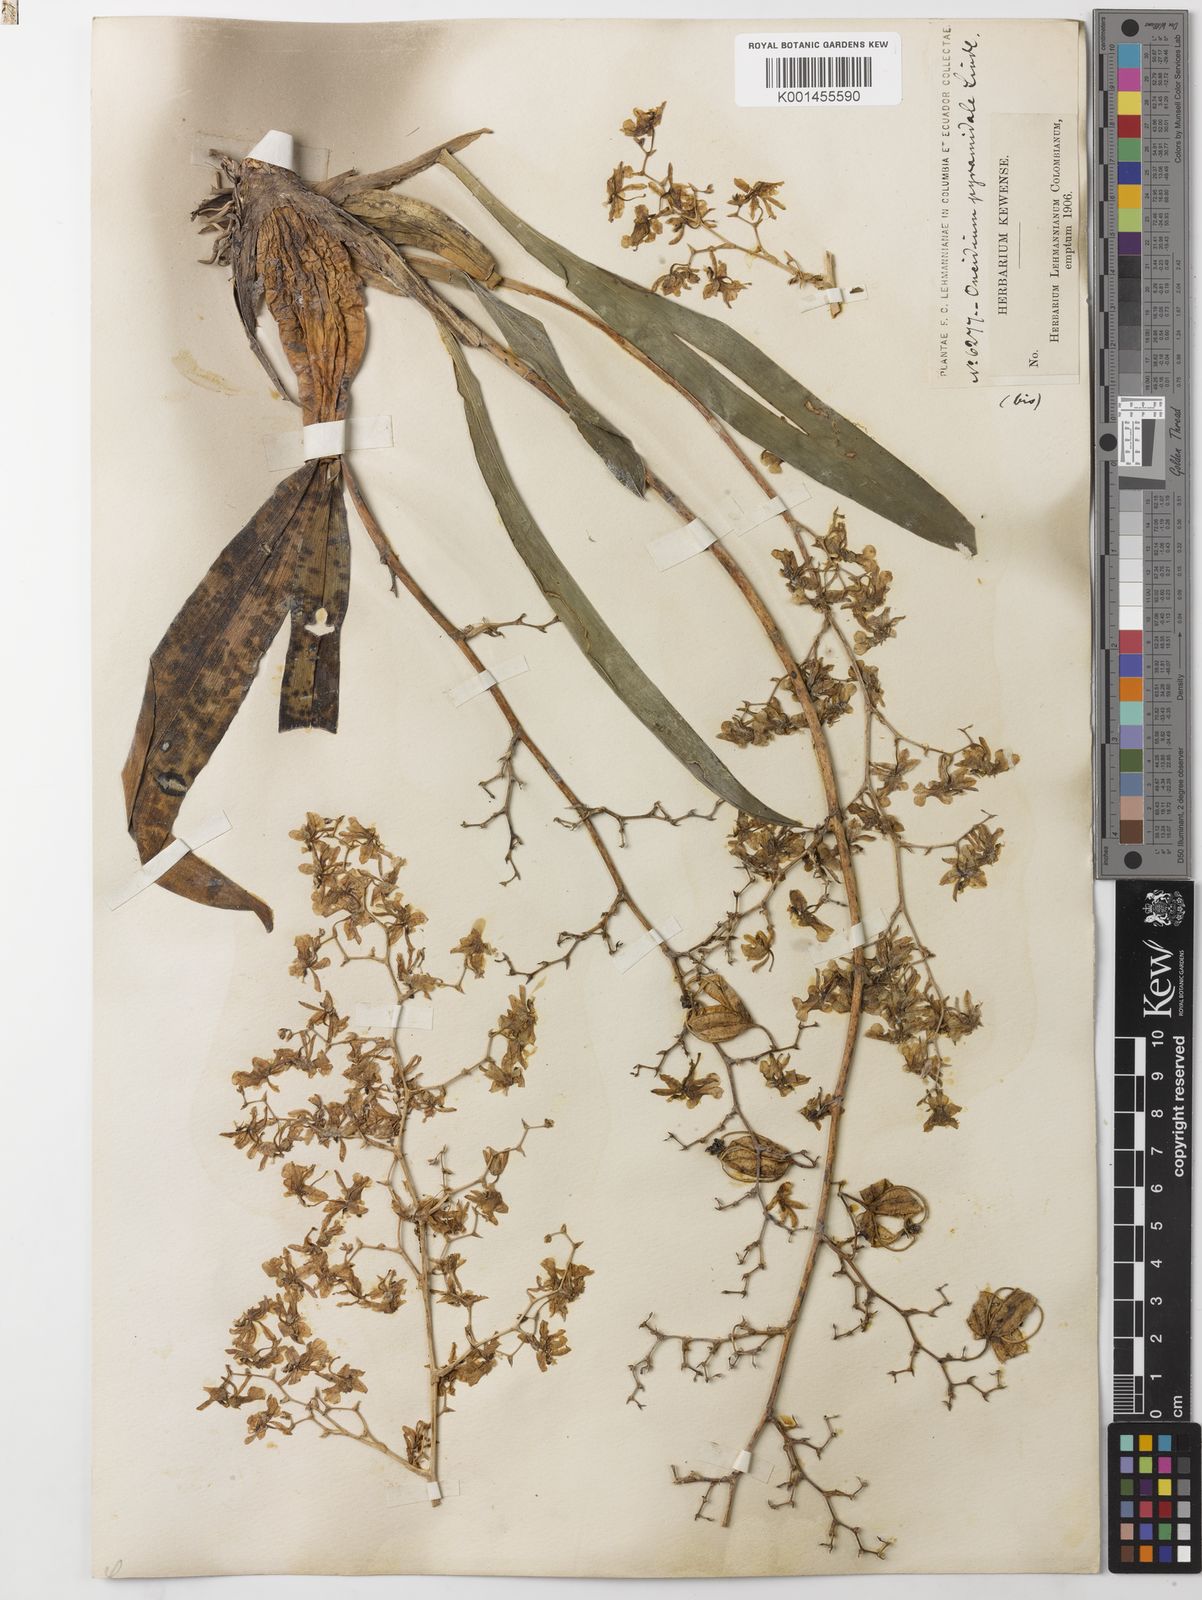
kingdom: Plantae
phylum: Tracheophyta
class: Liliopsida
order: Asparagales
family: Orchidaceae
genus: Oncidium
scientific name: Oncidium ornithorhynchum
